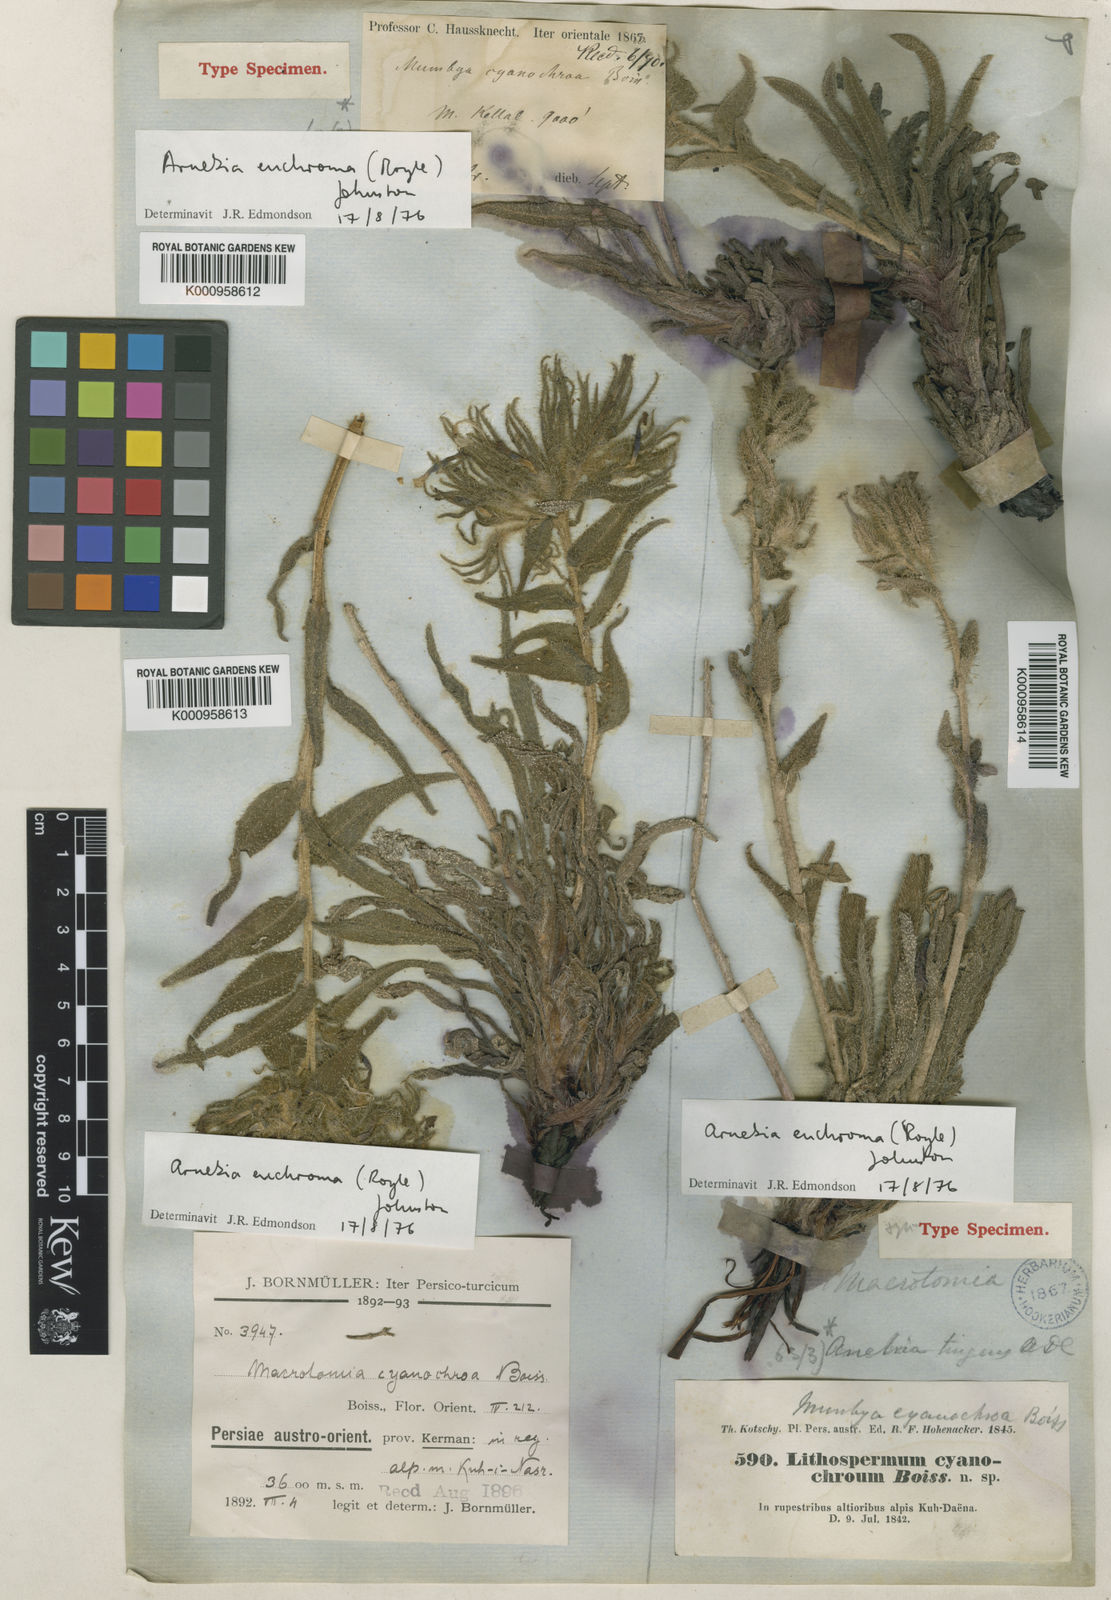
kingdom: Plantae
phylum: Tracheophyta
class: Magnoliopsida
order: Boraginales
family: Boraginaceae
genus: Arnebia
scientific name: Arnebia euchroma
